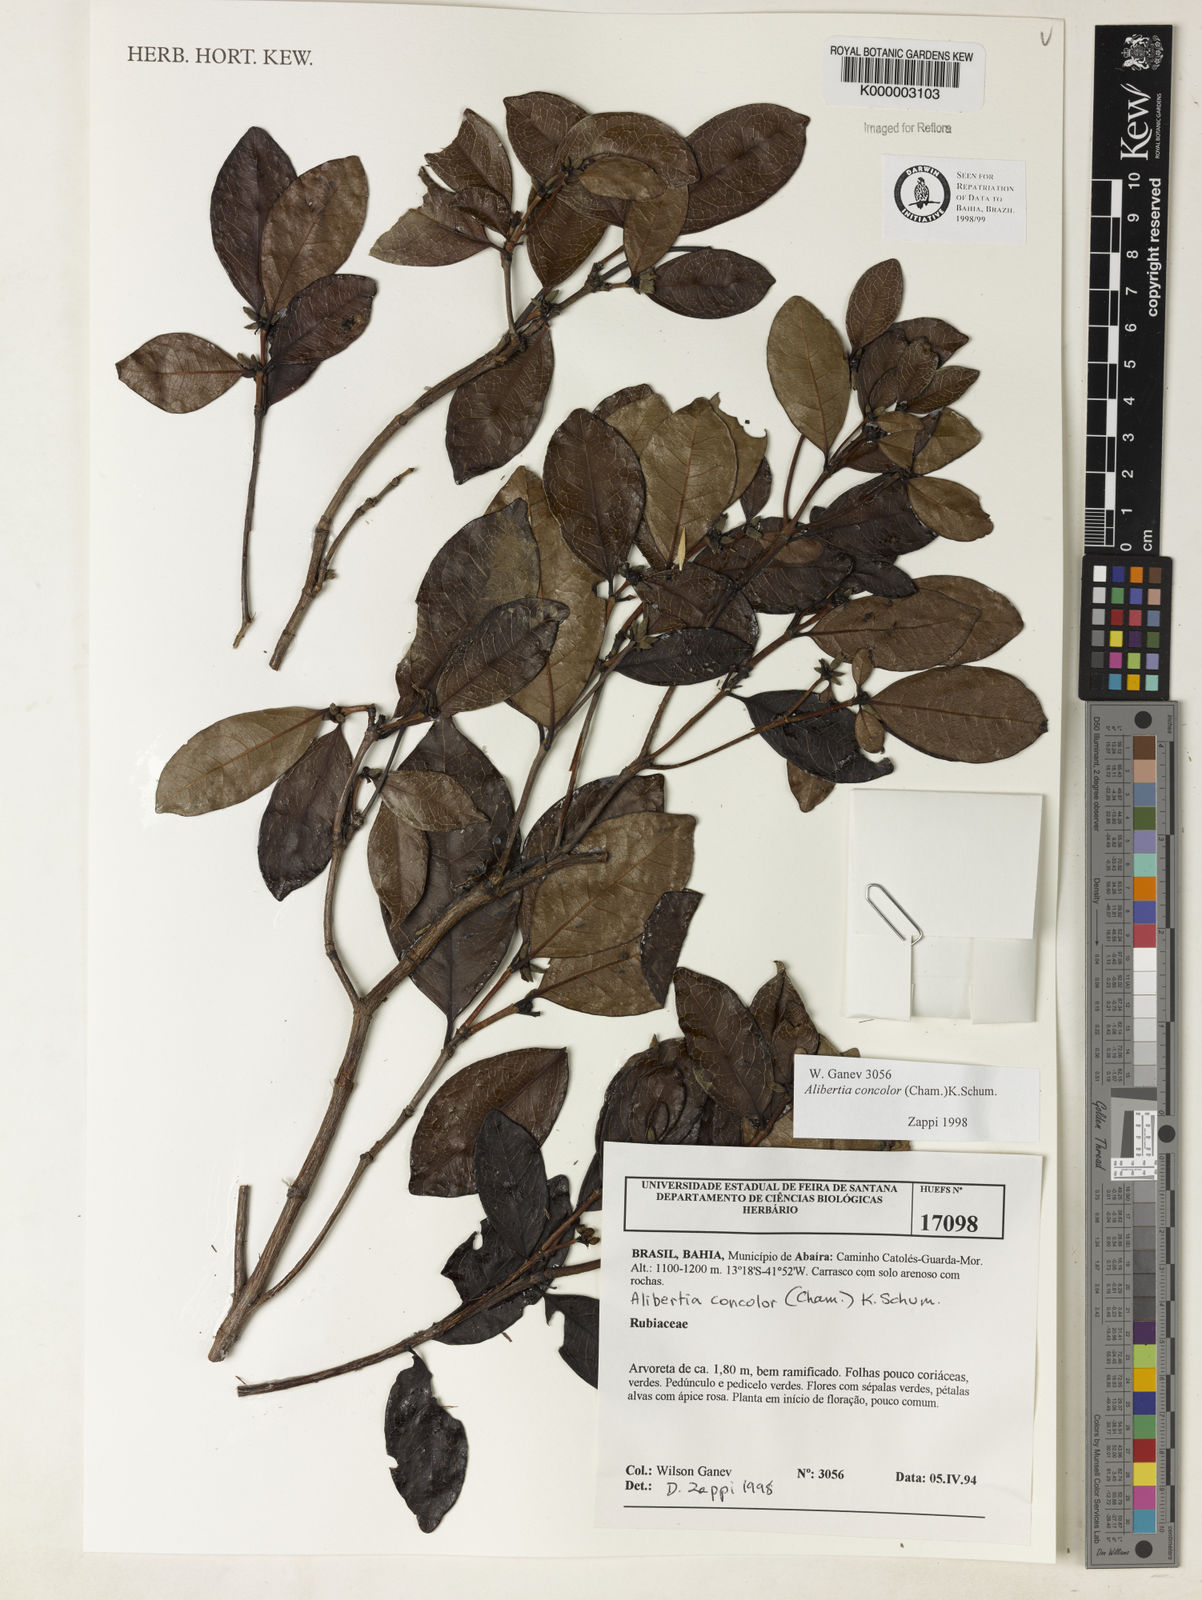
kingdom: Plantae
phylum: Tracheophyta
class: Magnoliopsida
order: Gentianales
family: Rubiaceae
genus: Cordiera
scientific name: Cordiera concolor
